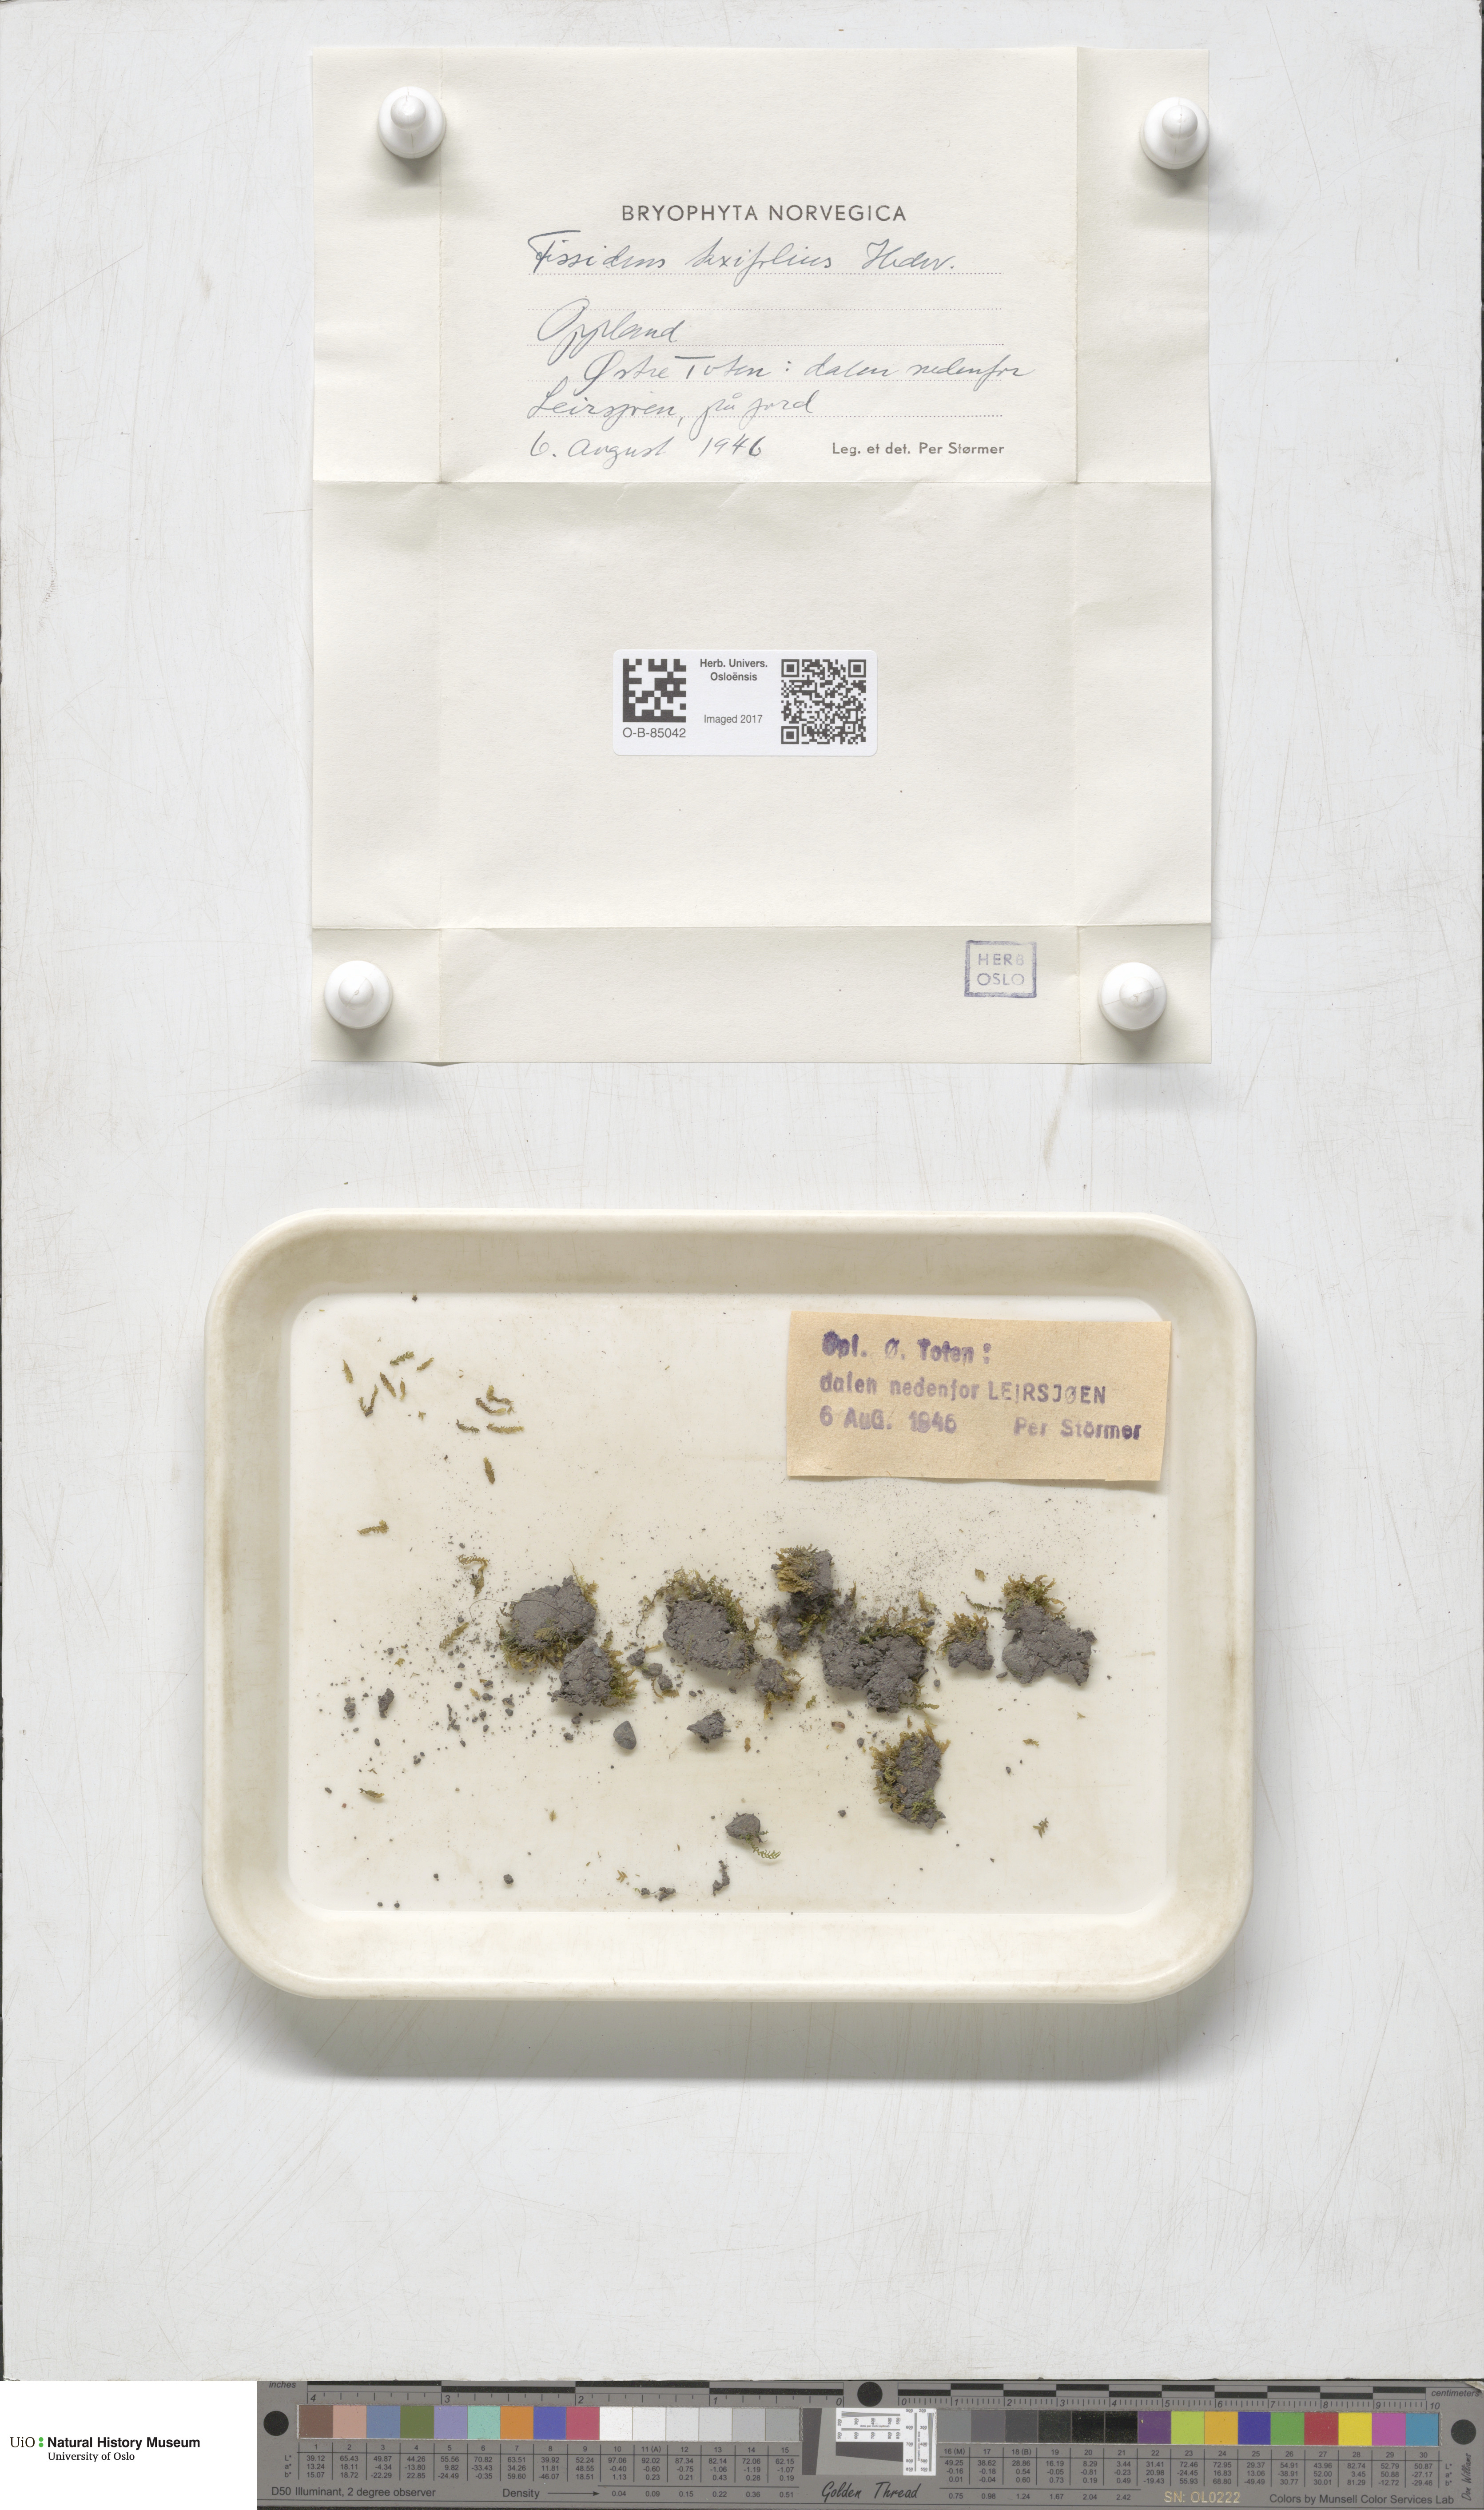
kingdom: Plantae
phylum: Bryophyta
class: Bryopsida
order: Dicranales
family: Fissidentaceae
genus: Fissidens
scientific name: Fissidens taxifolius
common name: Yew-leaved pocket moss
